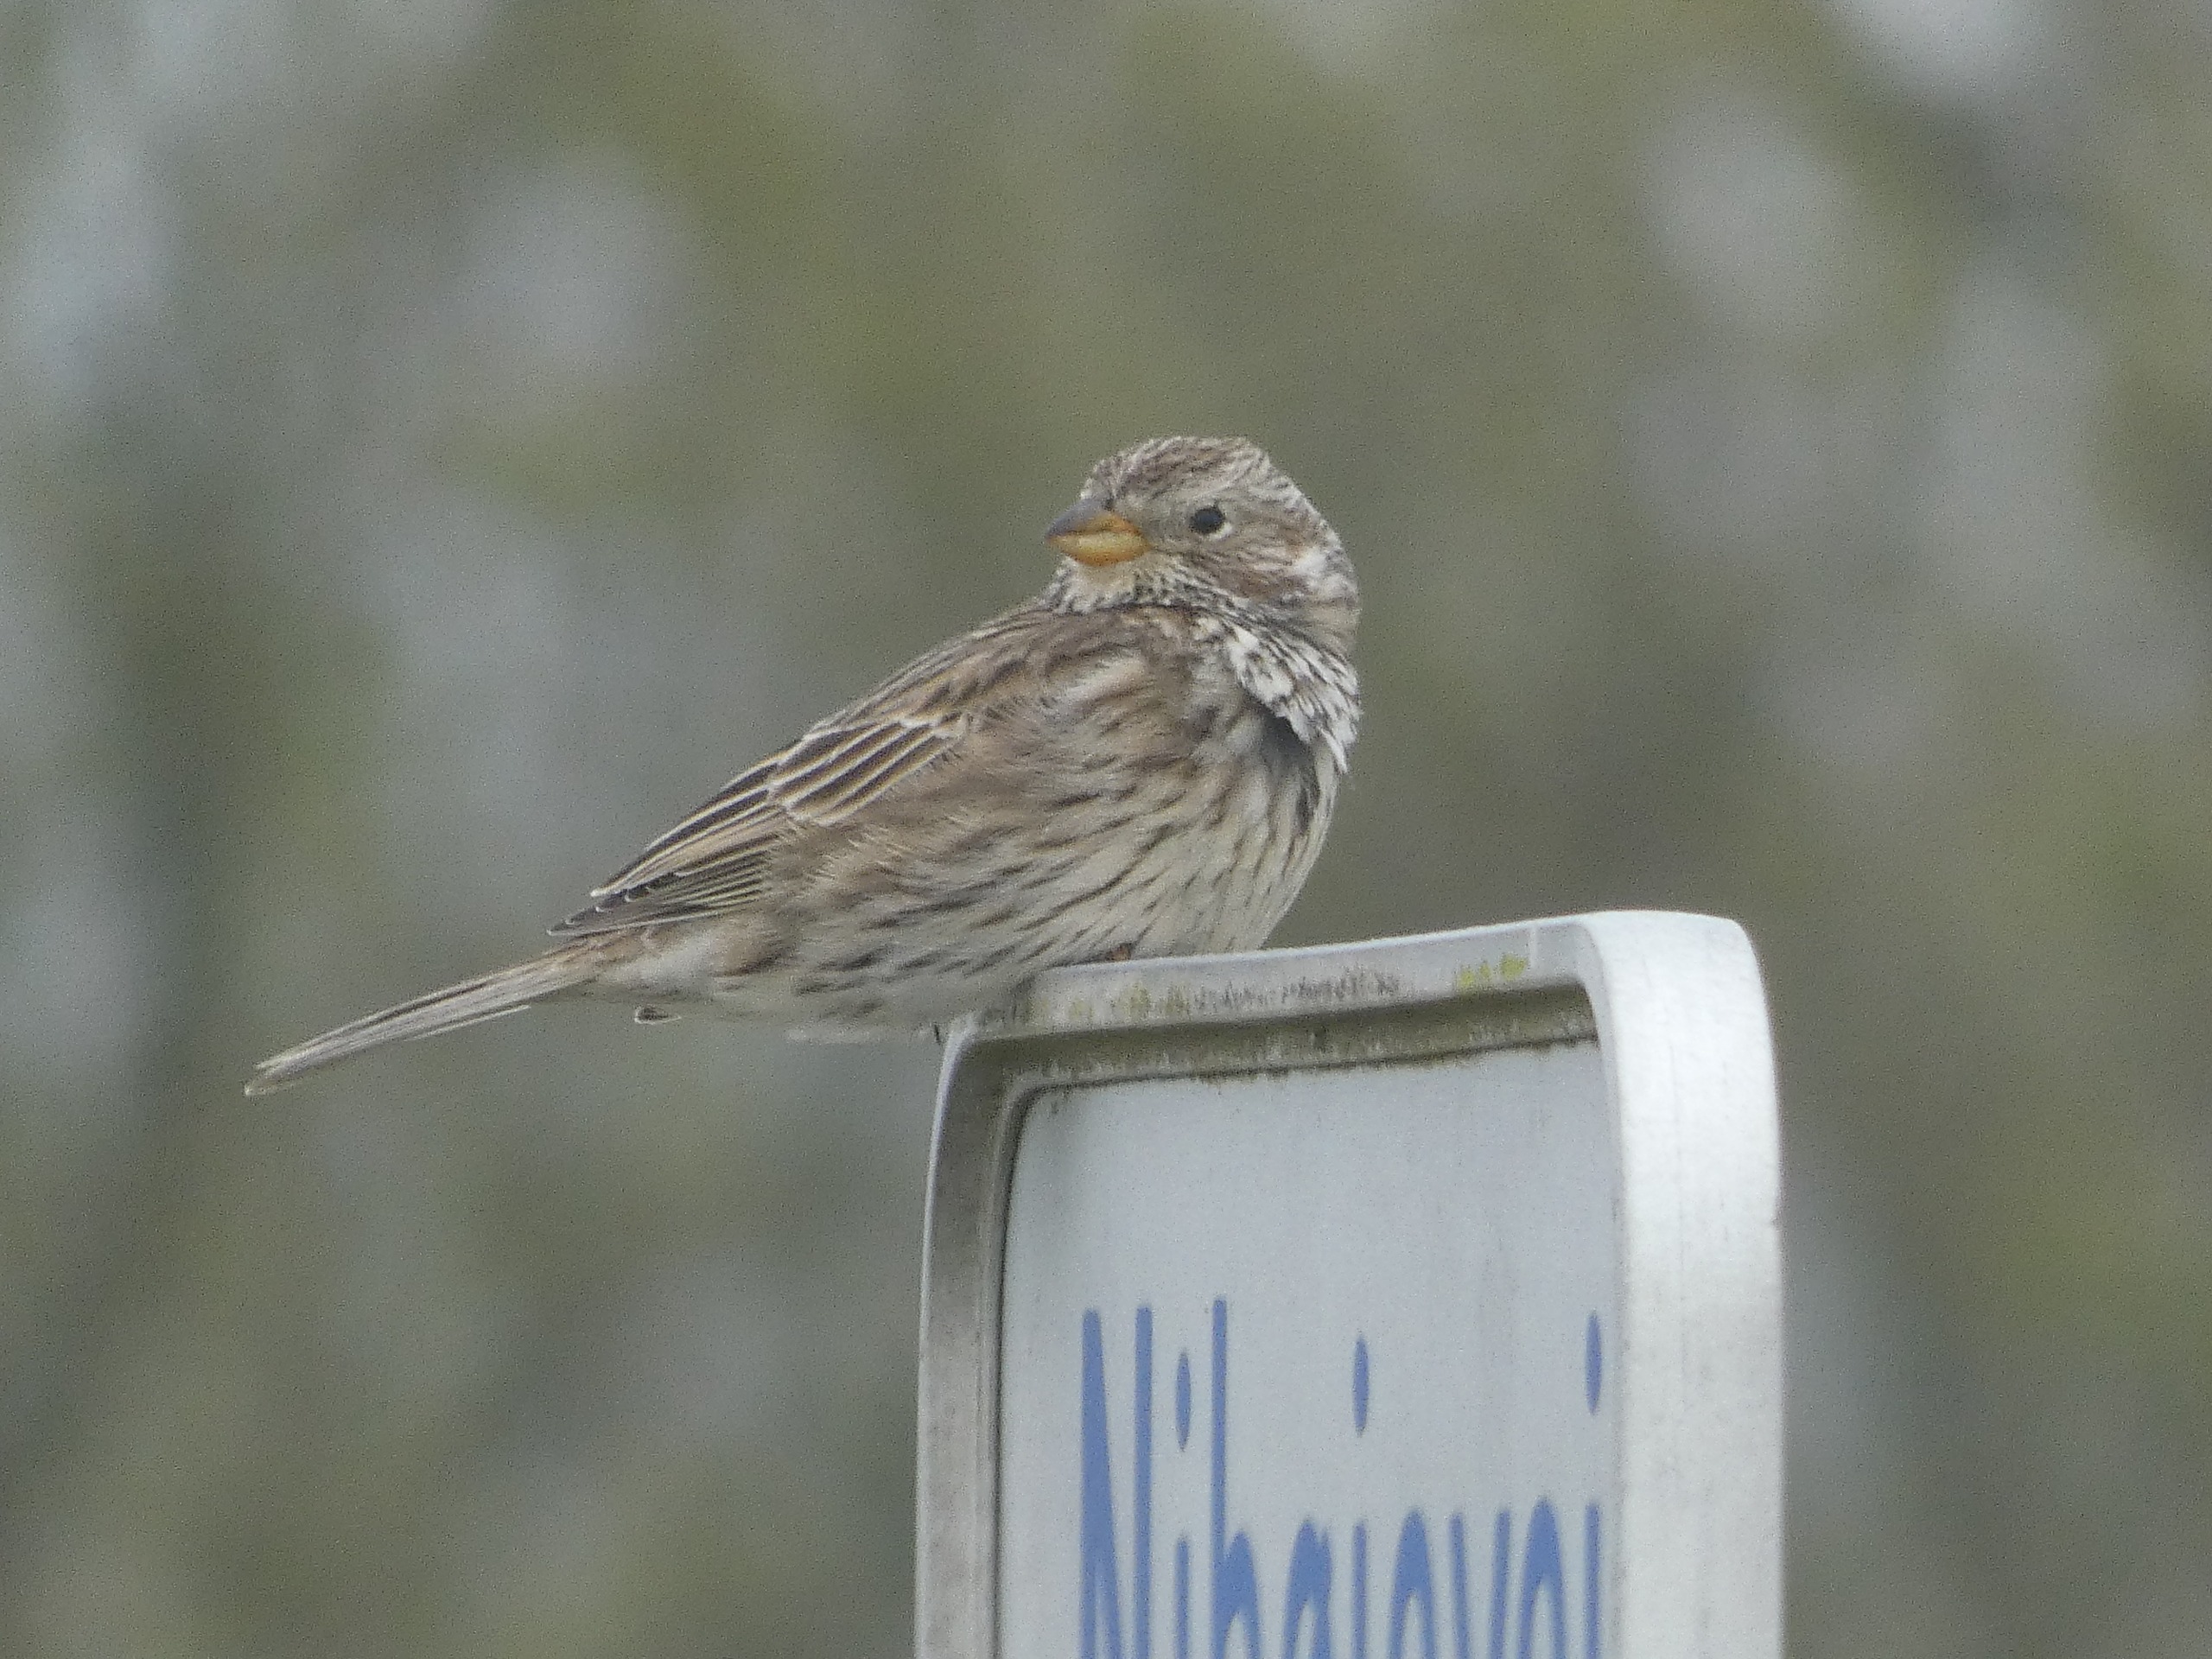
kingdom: Animalia
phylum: Chordata
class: Aves
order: Passeriformes
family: Emberizidae
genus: Emberiza
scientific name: Emberiza calandra
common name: Bomlærke
